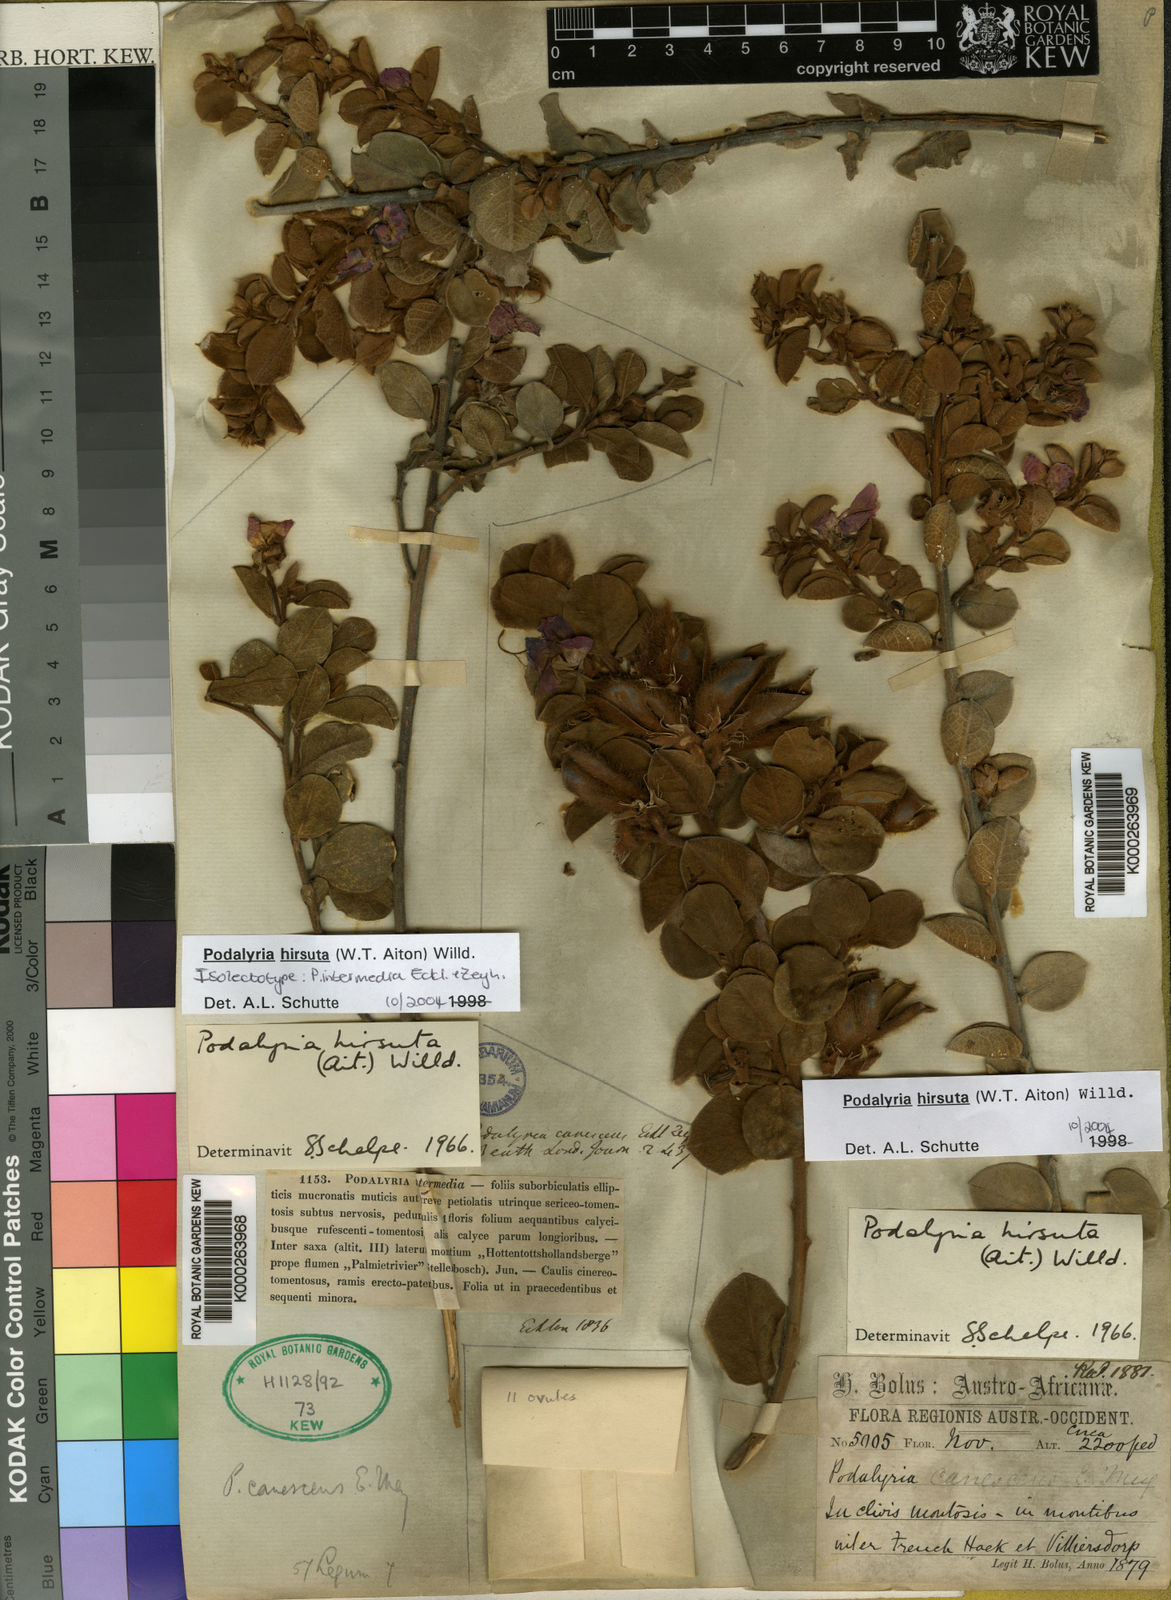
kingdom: Plantae
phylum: Tracheophyta
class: Magnoliopsida
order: Fabales
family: Fabaceae
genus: Podalyria
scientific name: Podalyria hirsuta
